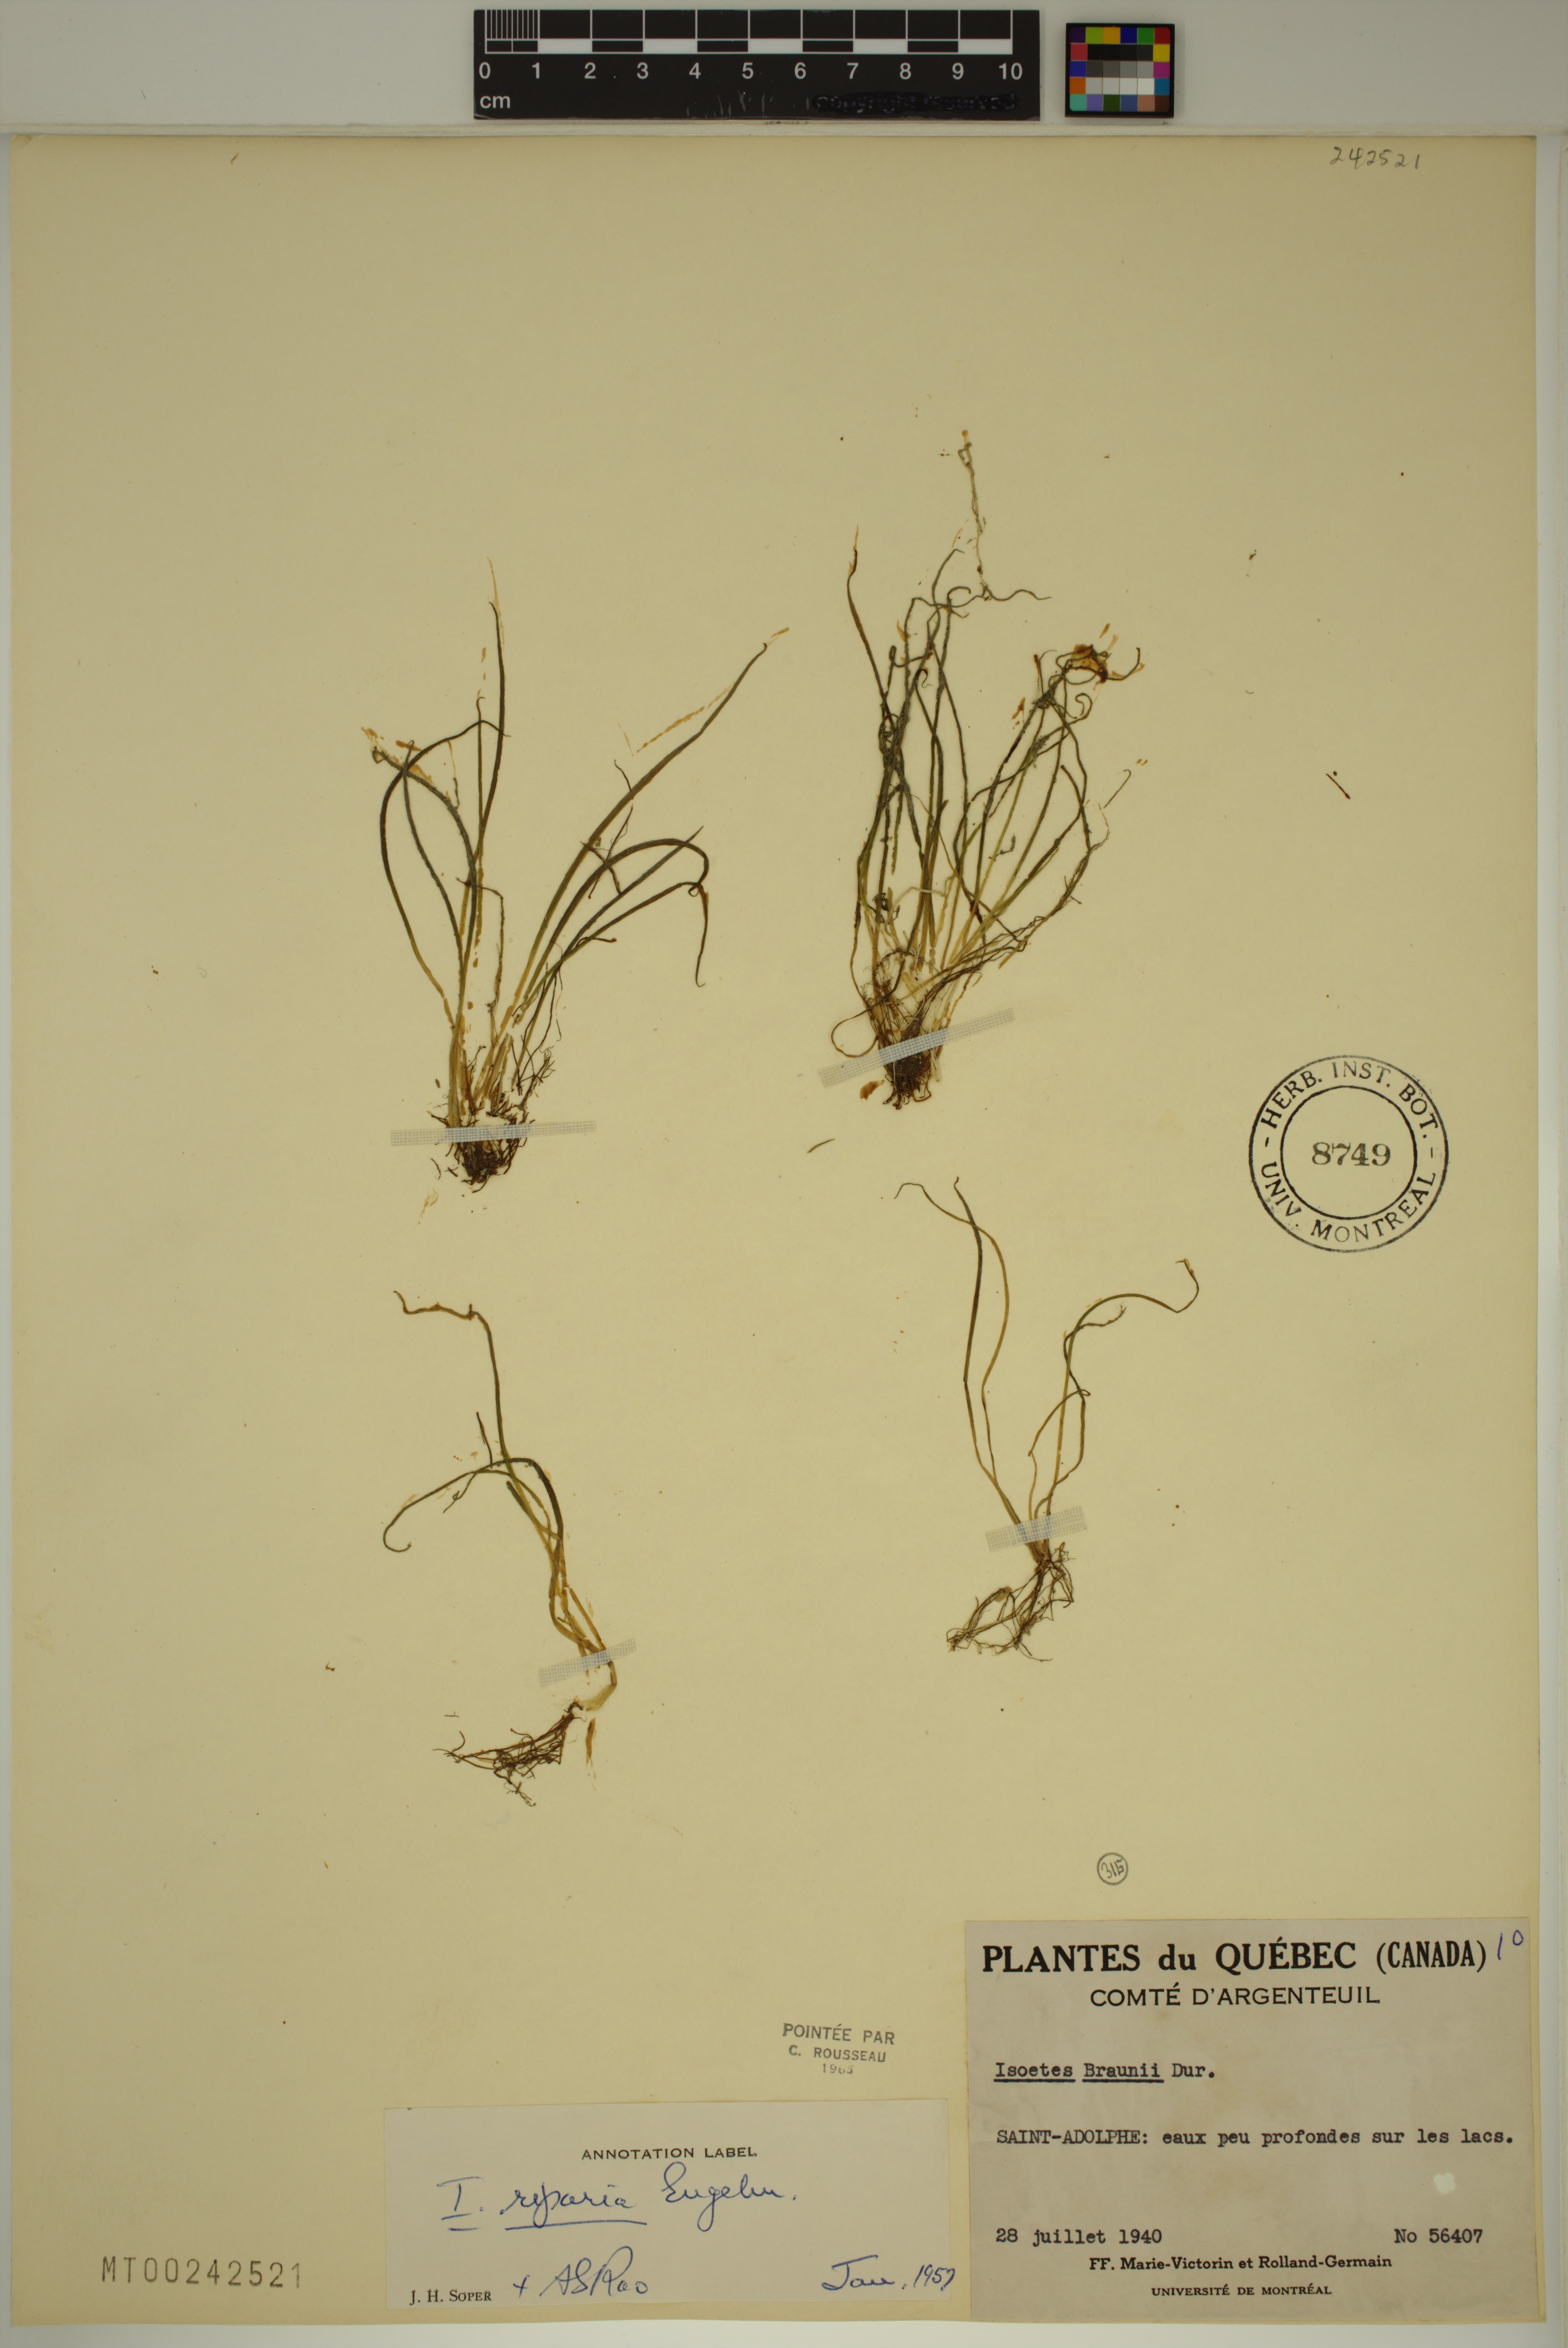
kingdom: Plantae
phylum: Tracheophyta
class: Lycopodiopsida
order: Isoetales
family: Isoetaceae
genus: Isoetes
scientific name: Isoetes echinospora
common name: Spring quillwort
